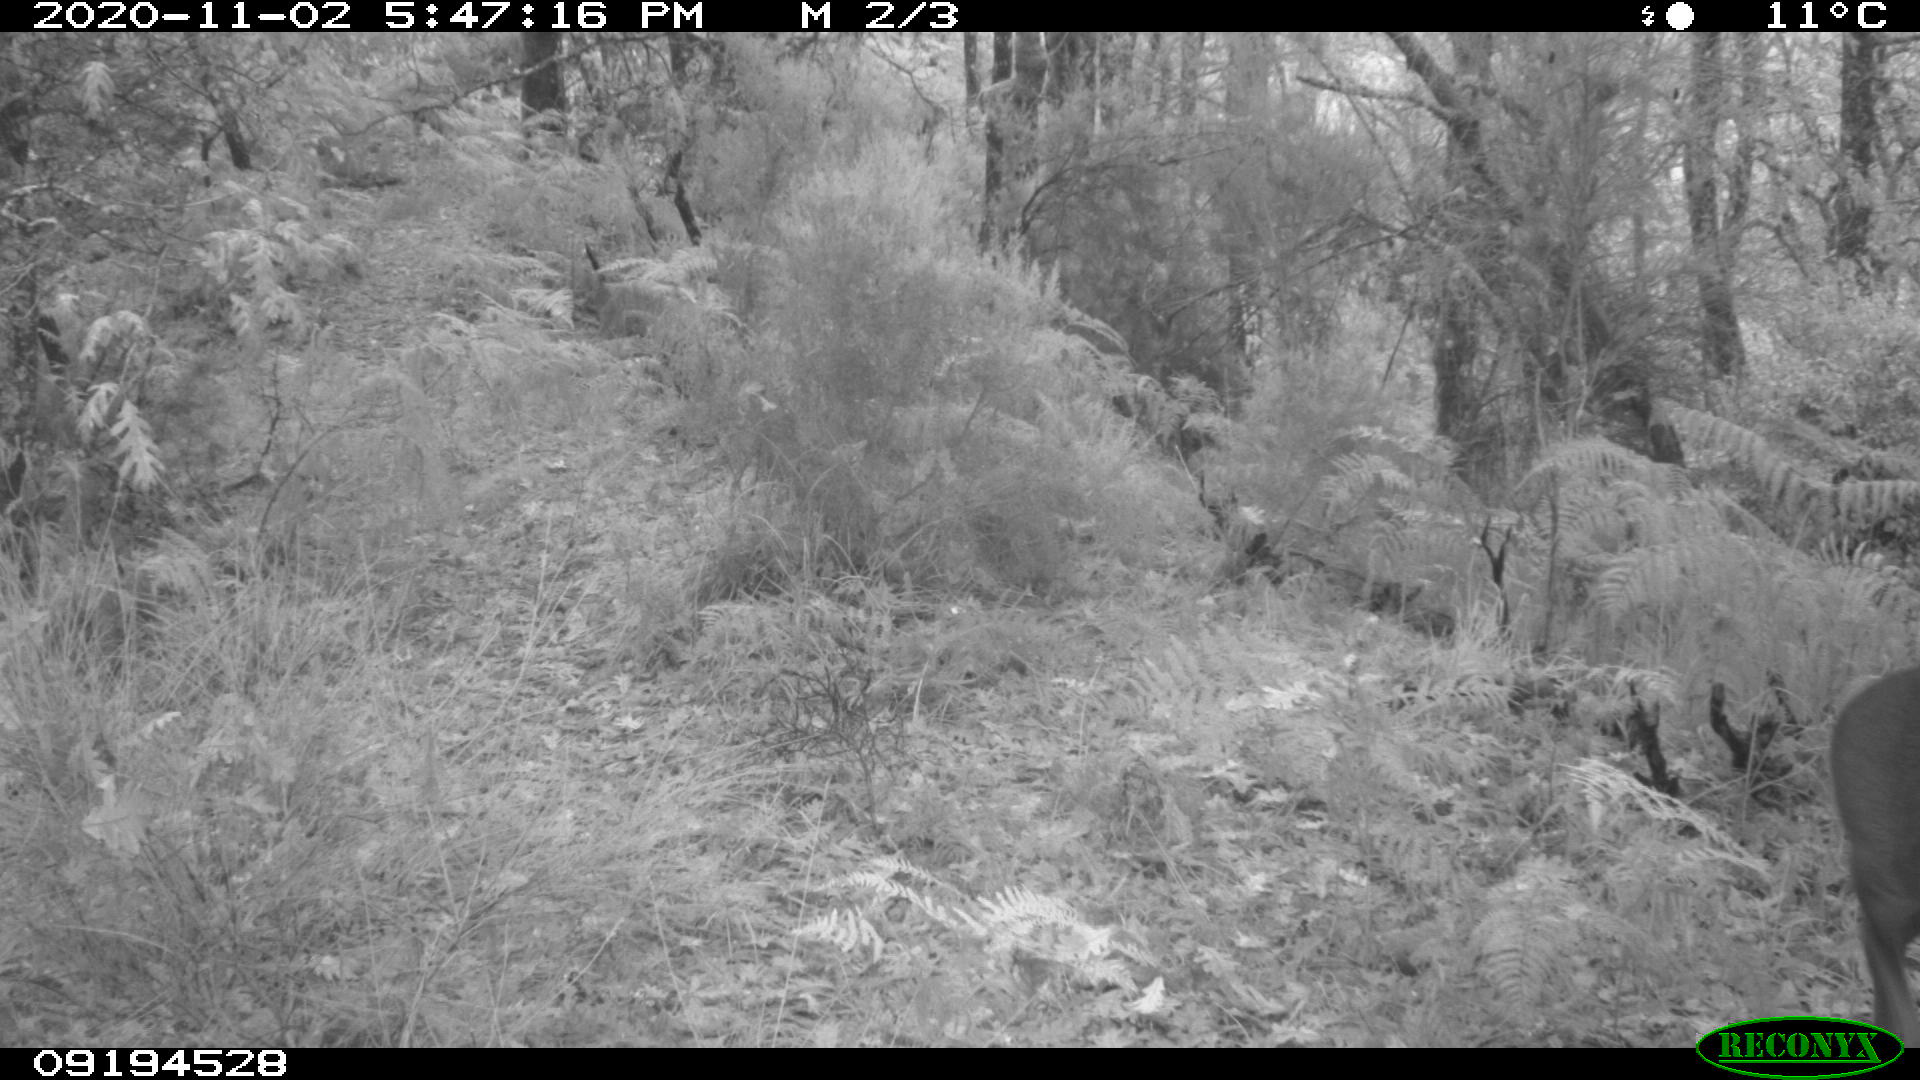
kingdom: Animalia
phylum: Chordata
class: Mammalia
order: Artiodactyla
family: Cervidae
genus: Capreolus
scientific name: Capreolus capreolus
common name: Western roe deer
